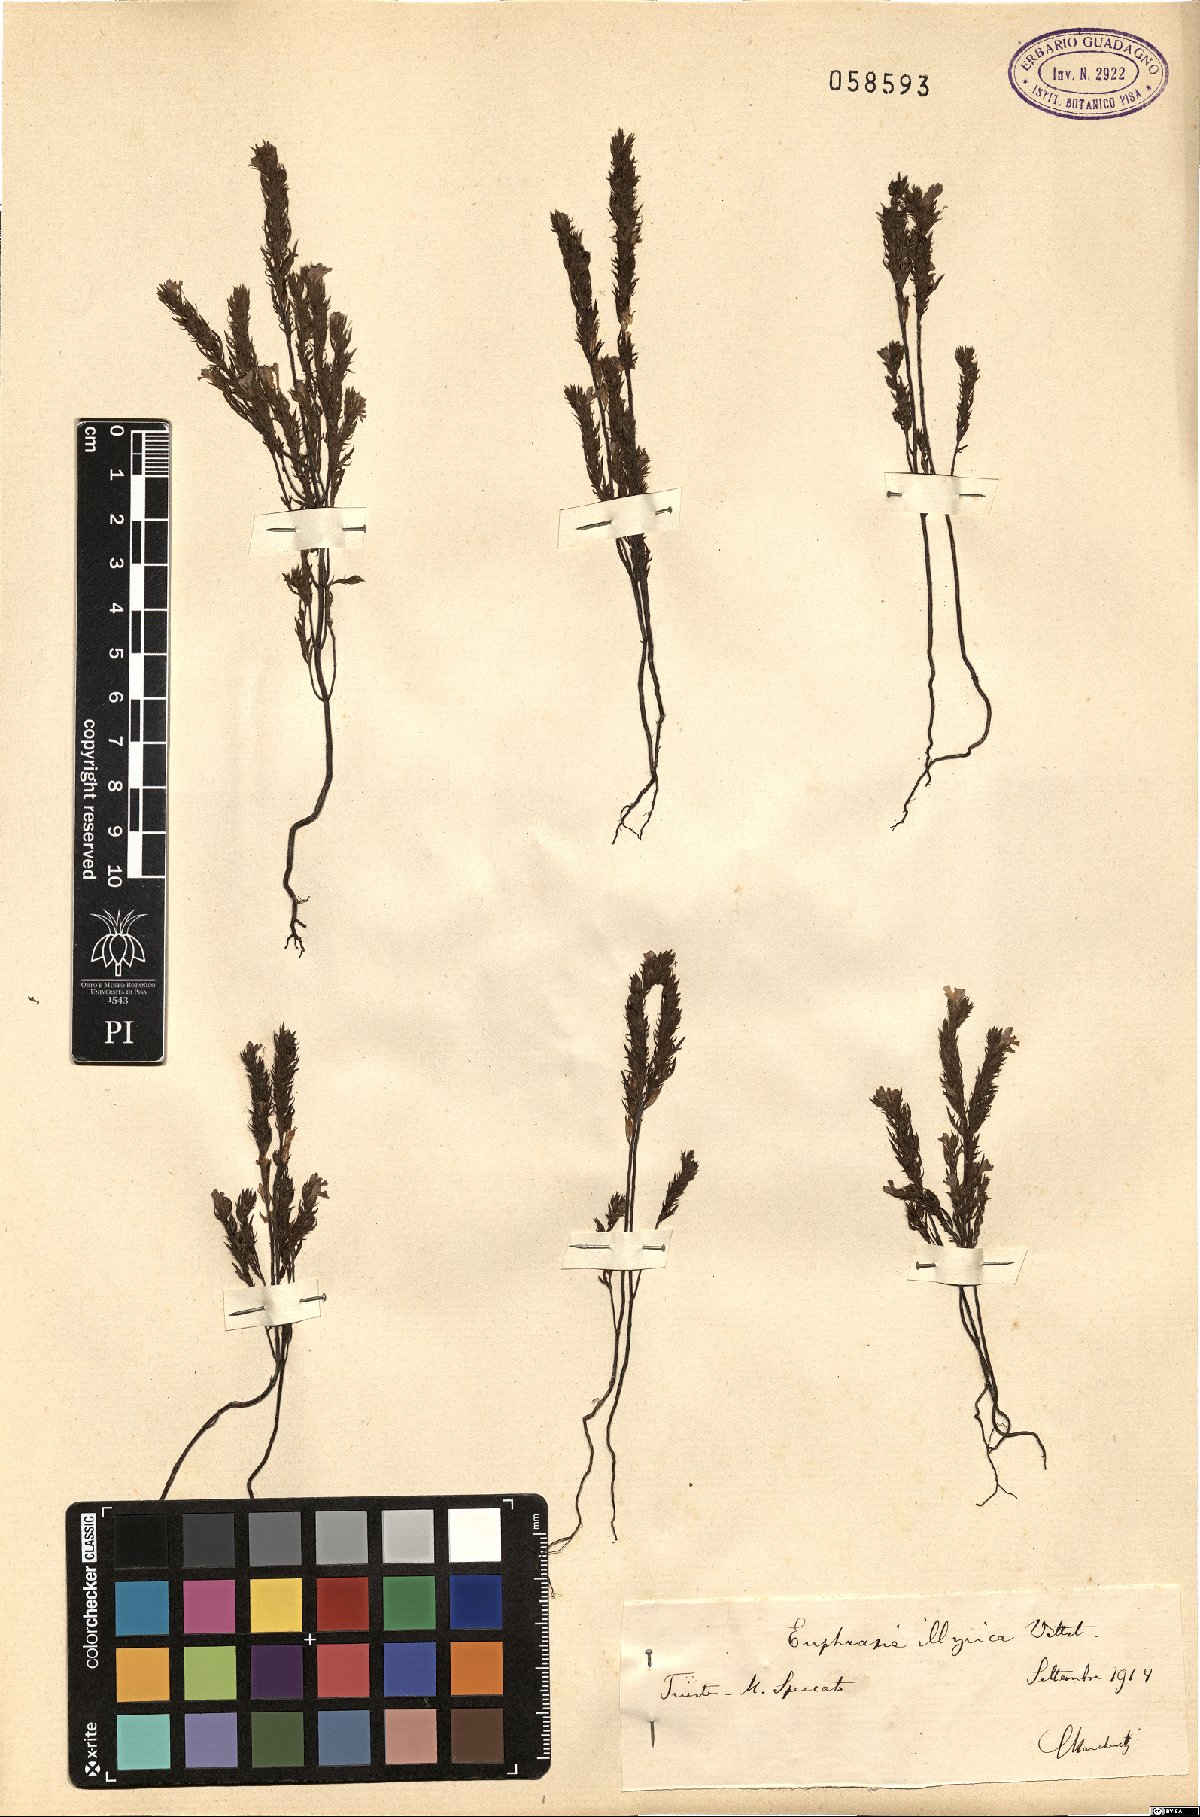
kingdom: Plantae
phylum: Tracheophyta
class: Magnoliopsida
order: Lamiales
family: Orobanchaceae
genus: Euphrasia
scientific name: Euphrasia illyrica
